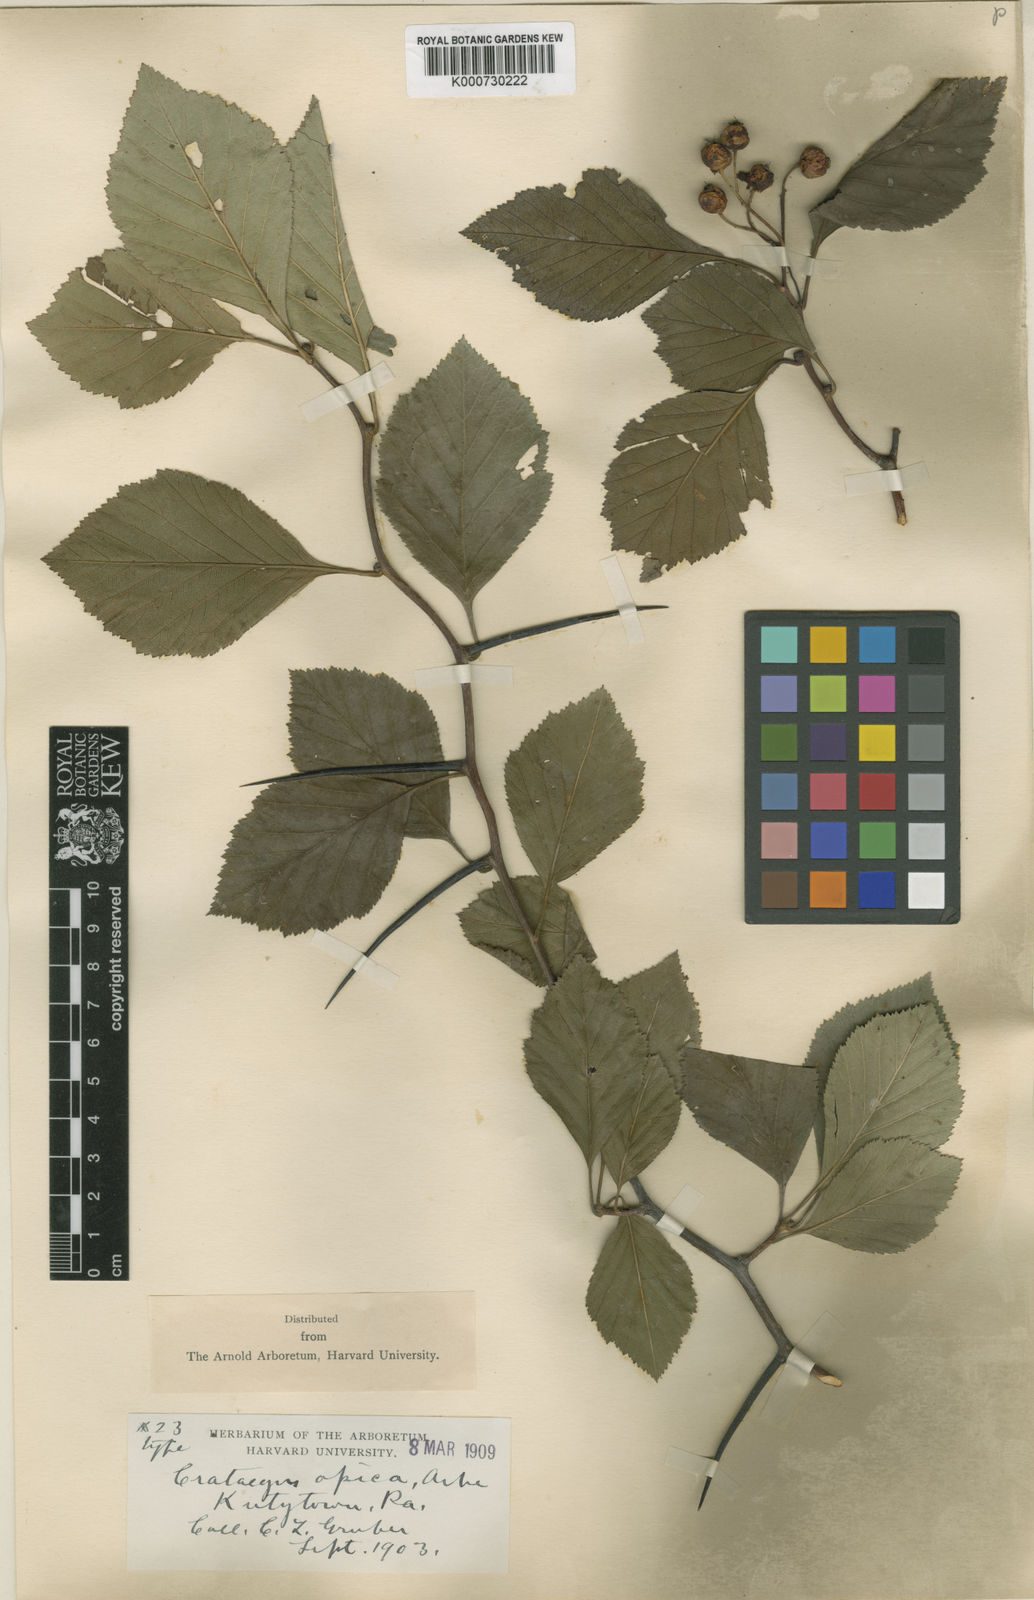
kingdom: Plantae
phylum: Tracheophyta
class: Magnoliopsida
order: Rosales
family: Rosaceae
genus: Crataegus
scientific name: Crataegus opaca
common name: Apple haw
